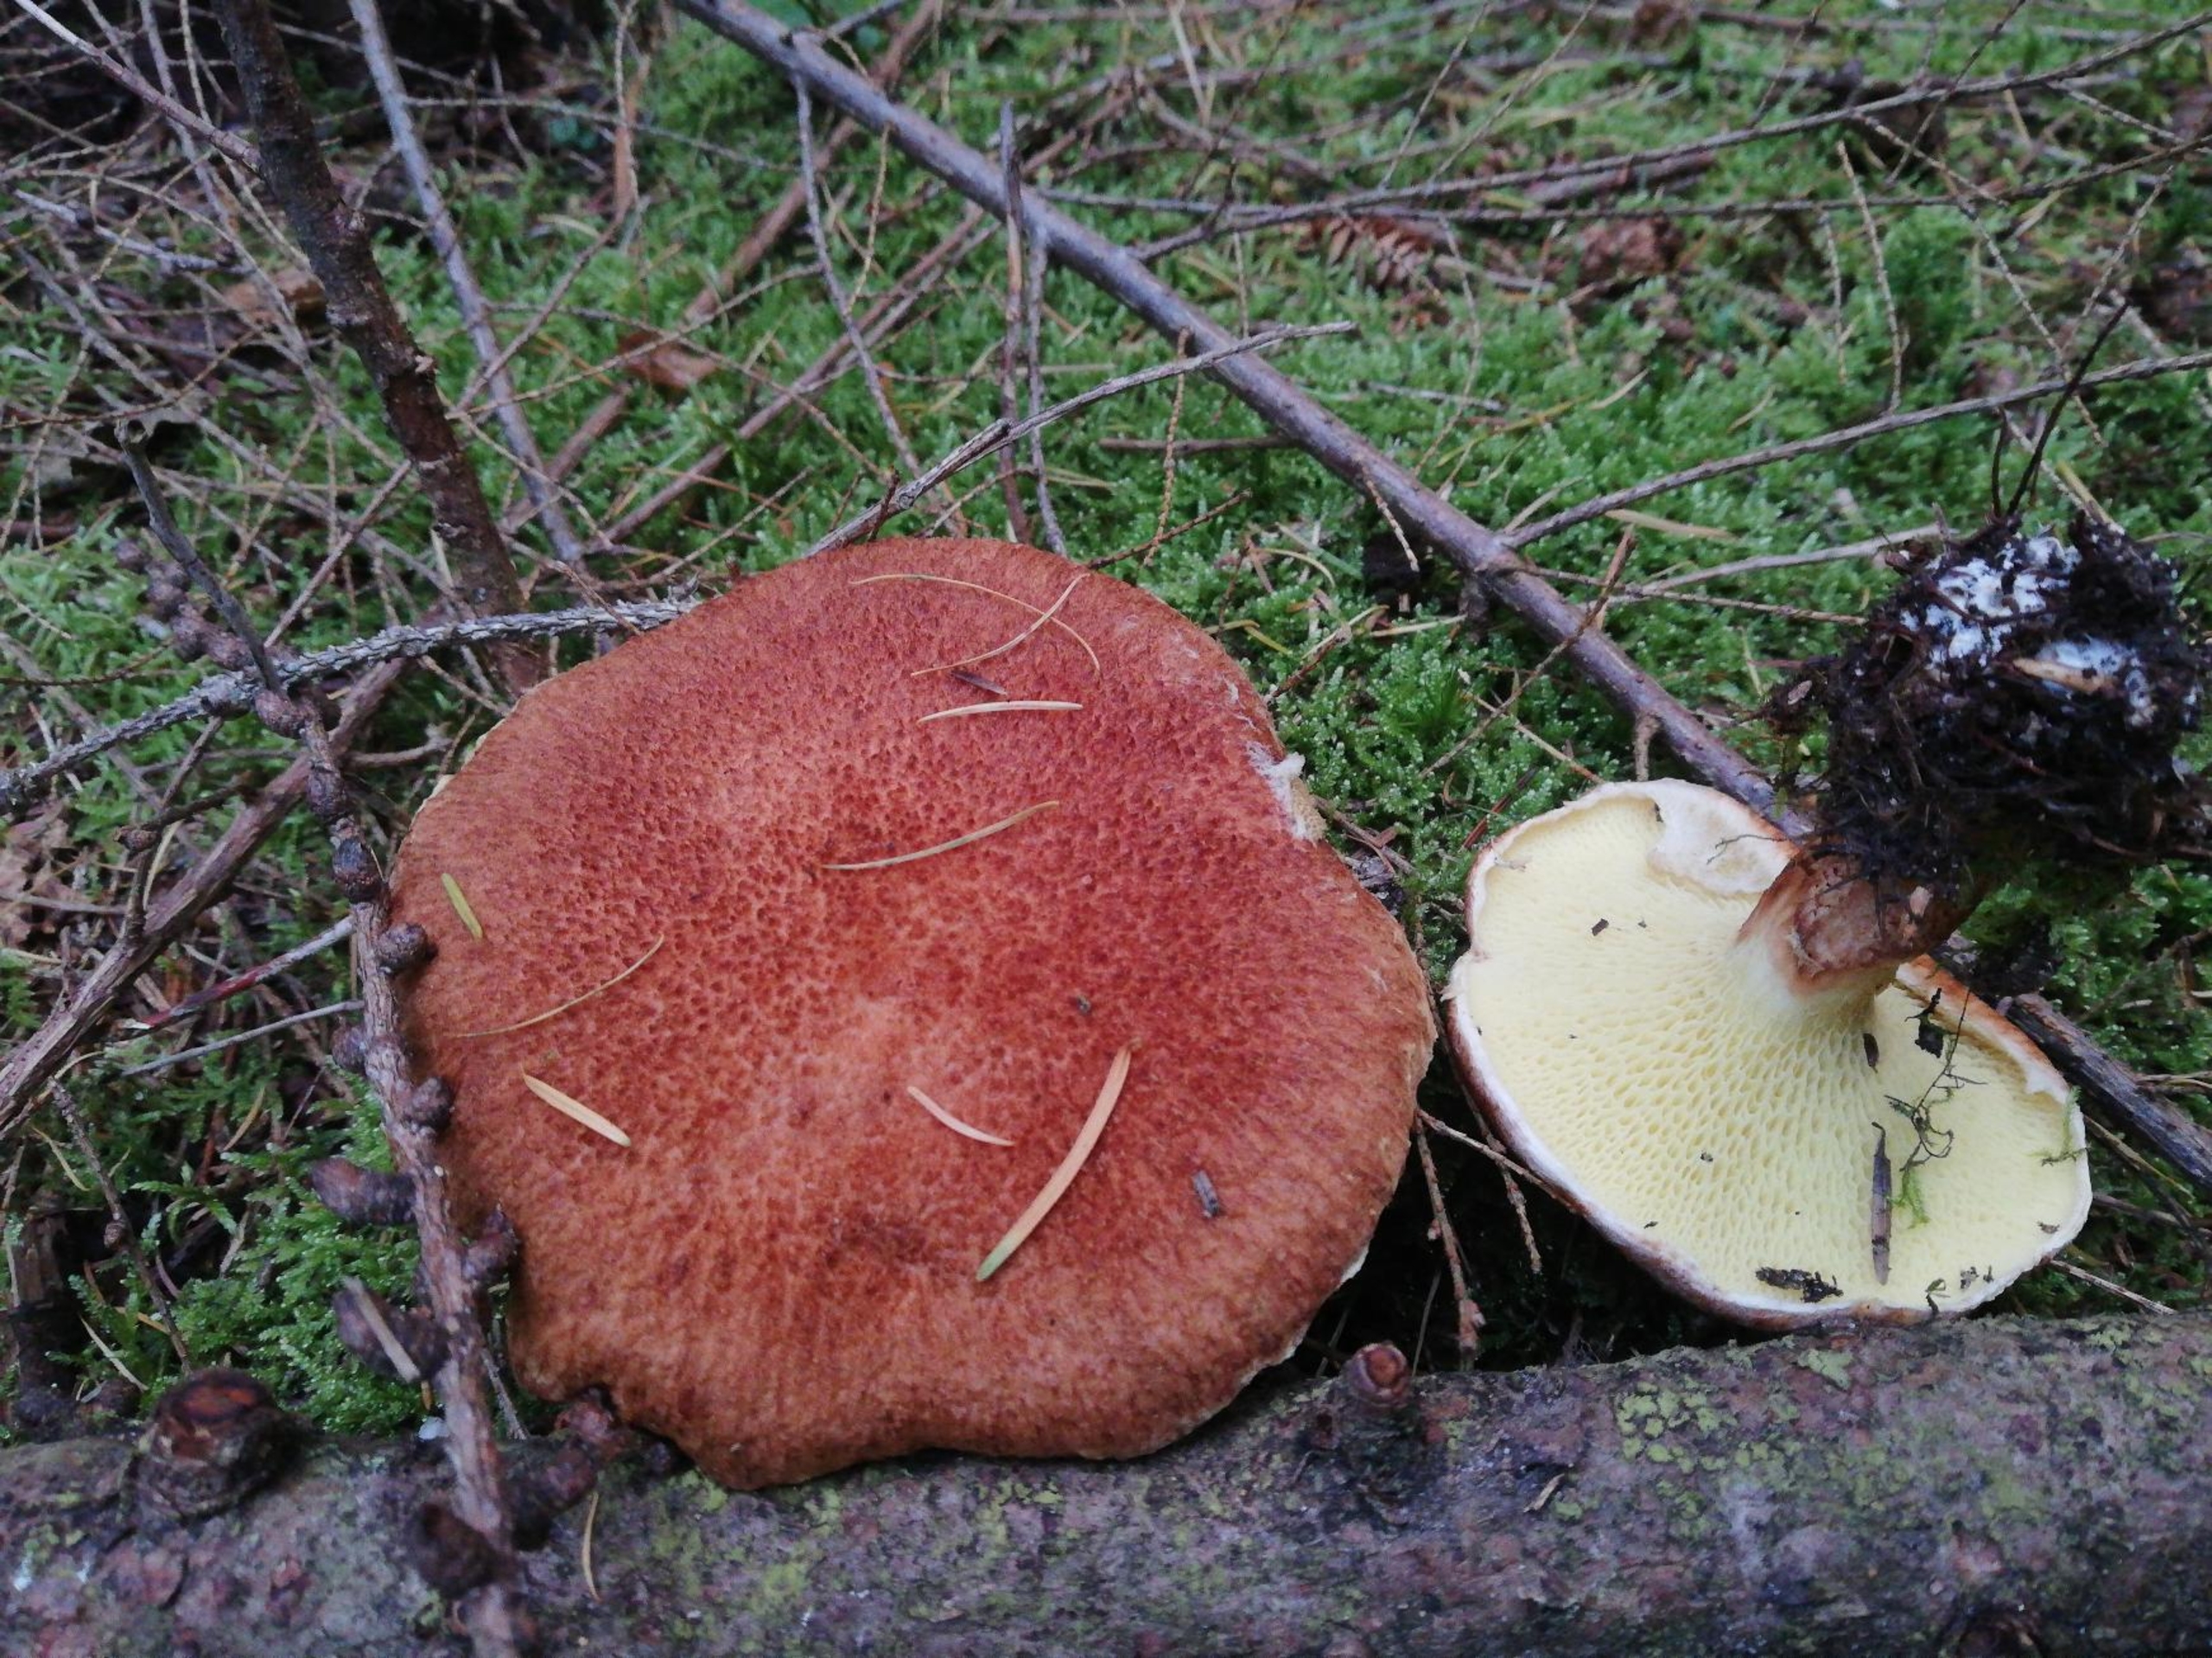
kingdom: Fungi
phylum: Basidiomycota
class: Agaricomycetes
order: Boletales
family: Suillaceae
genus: Suillus
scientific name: Suillus cavipes
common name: Hulstokket slimrørhat
